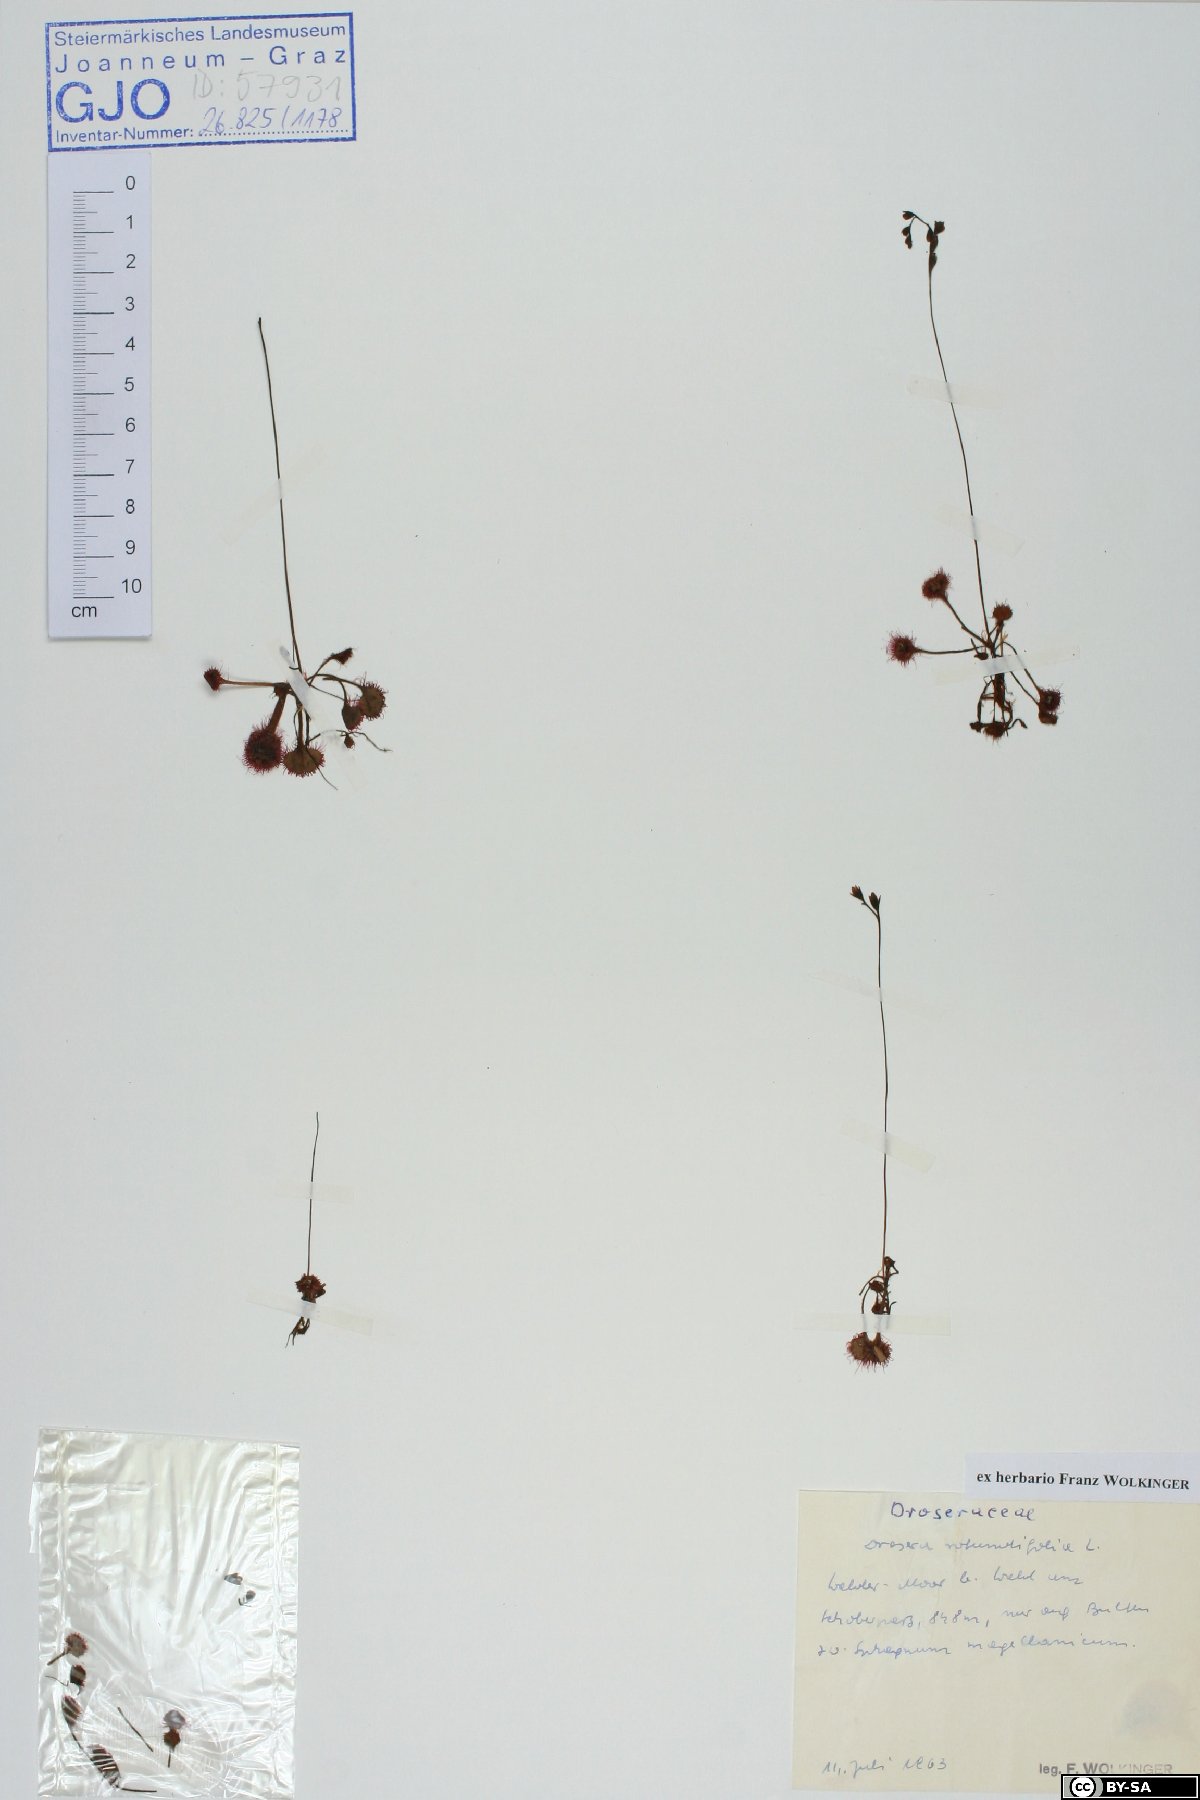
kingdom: Plantae
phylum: Tracheophyta
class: Magnoliopsida
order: Caryophyllales
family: Droseraceae
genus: Drosera
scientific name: Drosera rotundifolia
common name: Round-leaved sundew
